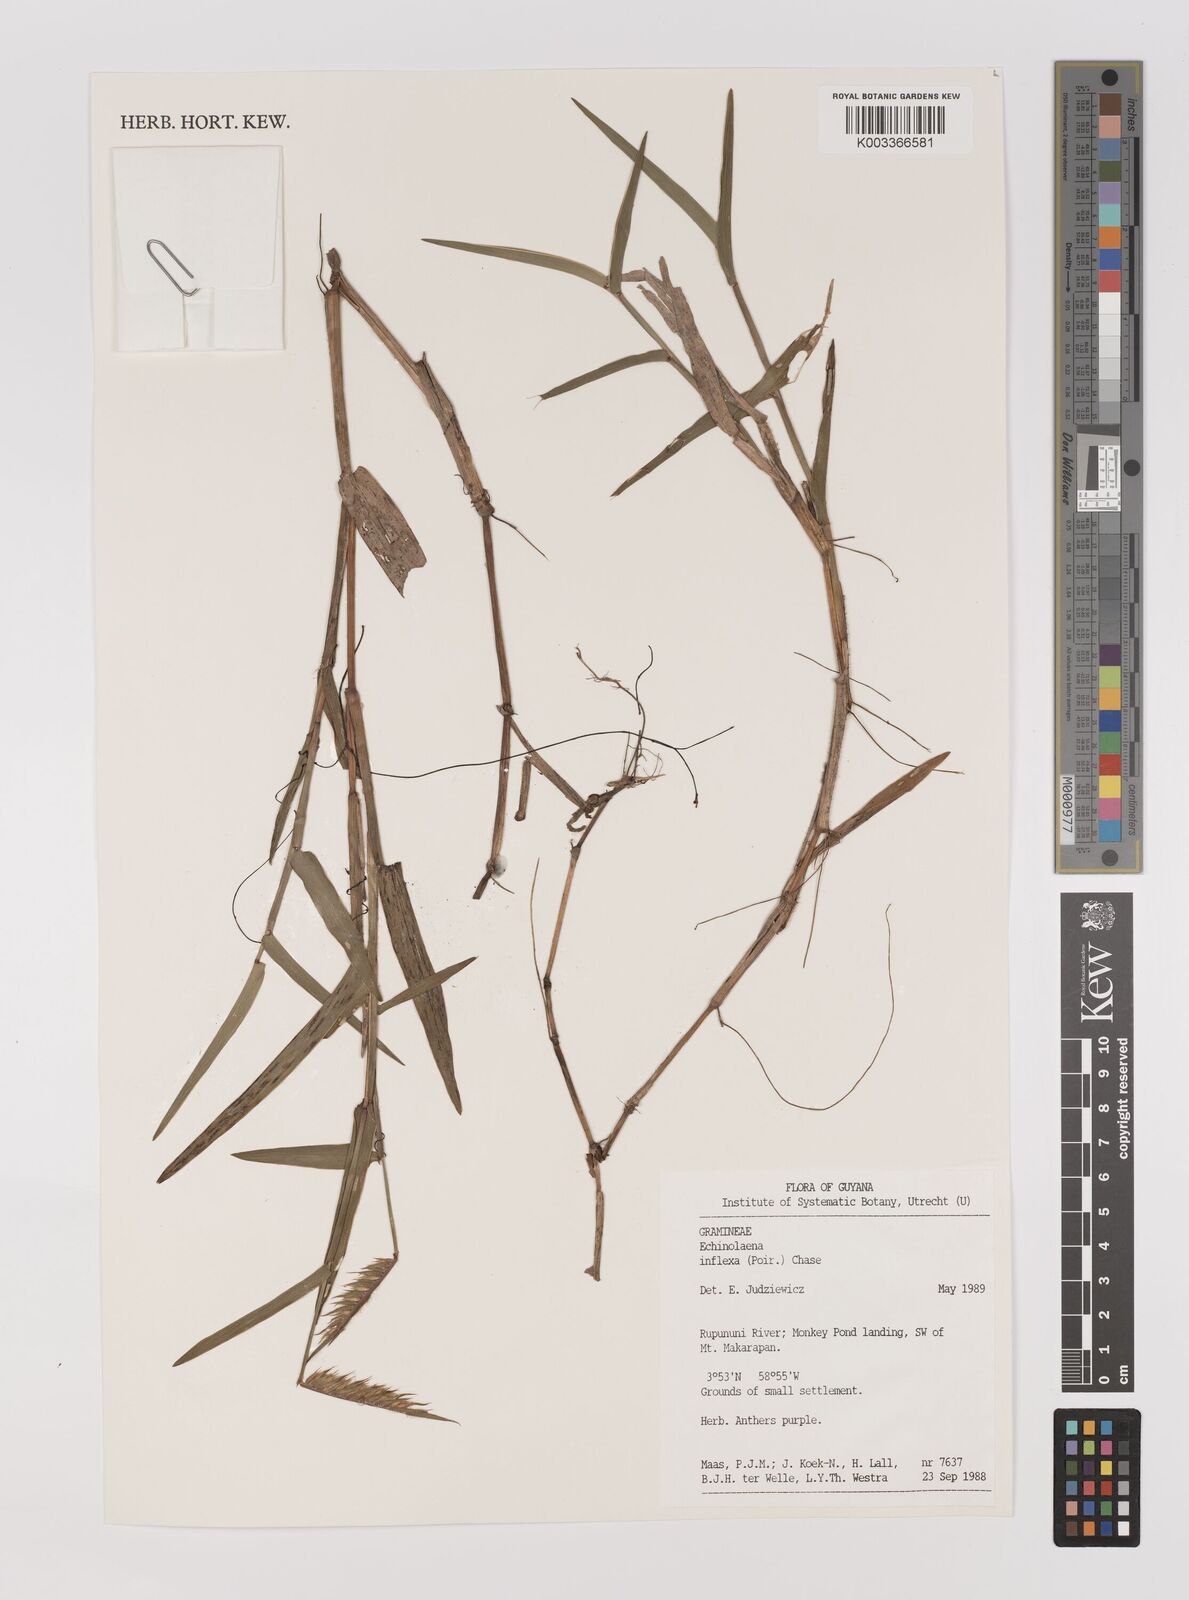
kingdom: Plantae
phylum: Tracheophyta
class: Liliopsida
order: Poales
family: Poaceae
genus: Echinolaena
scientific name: Echinolaena inflexa
